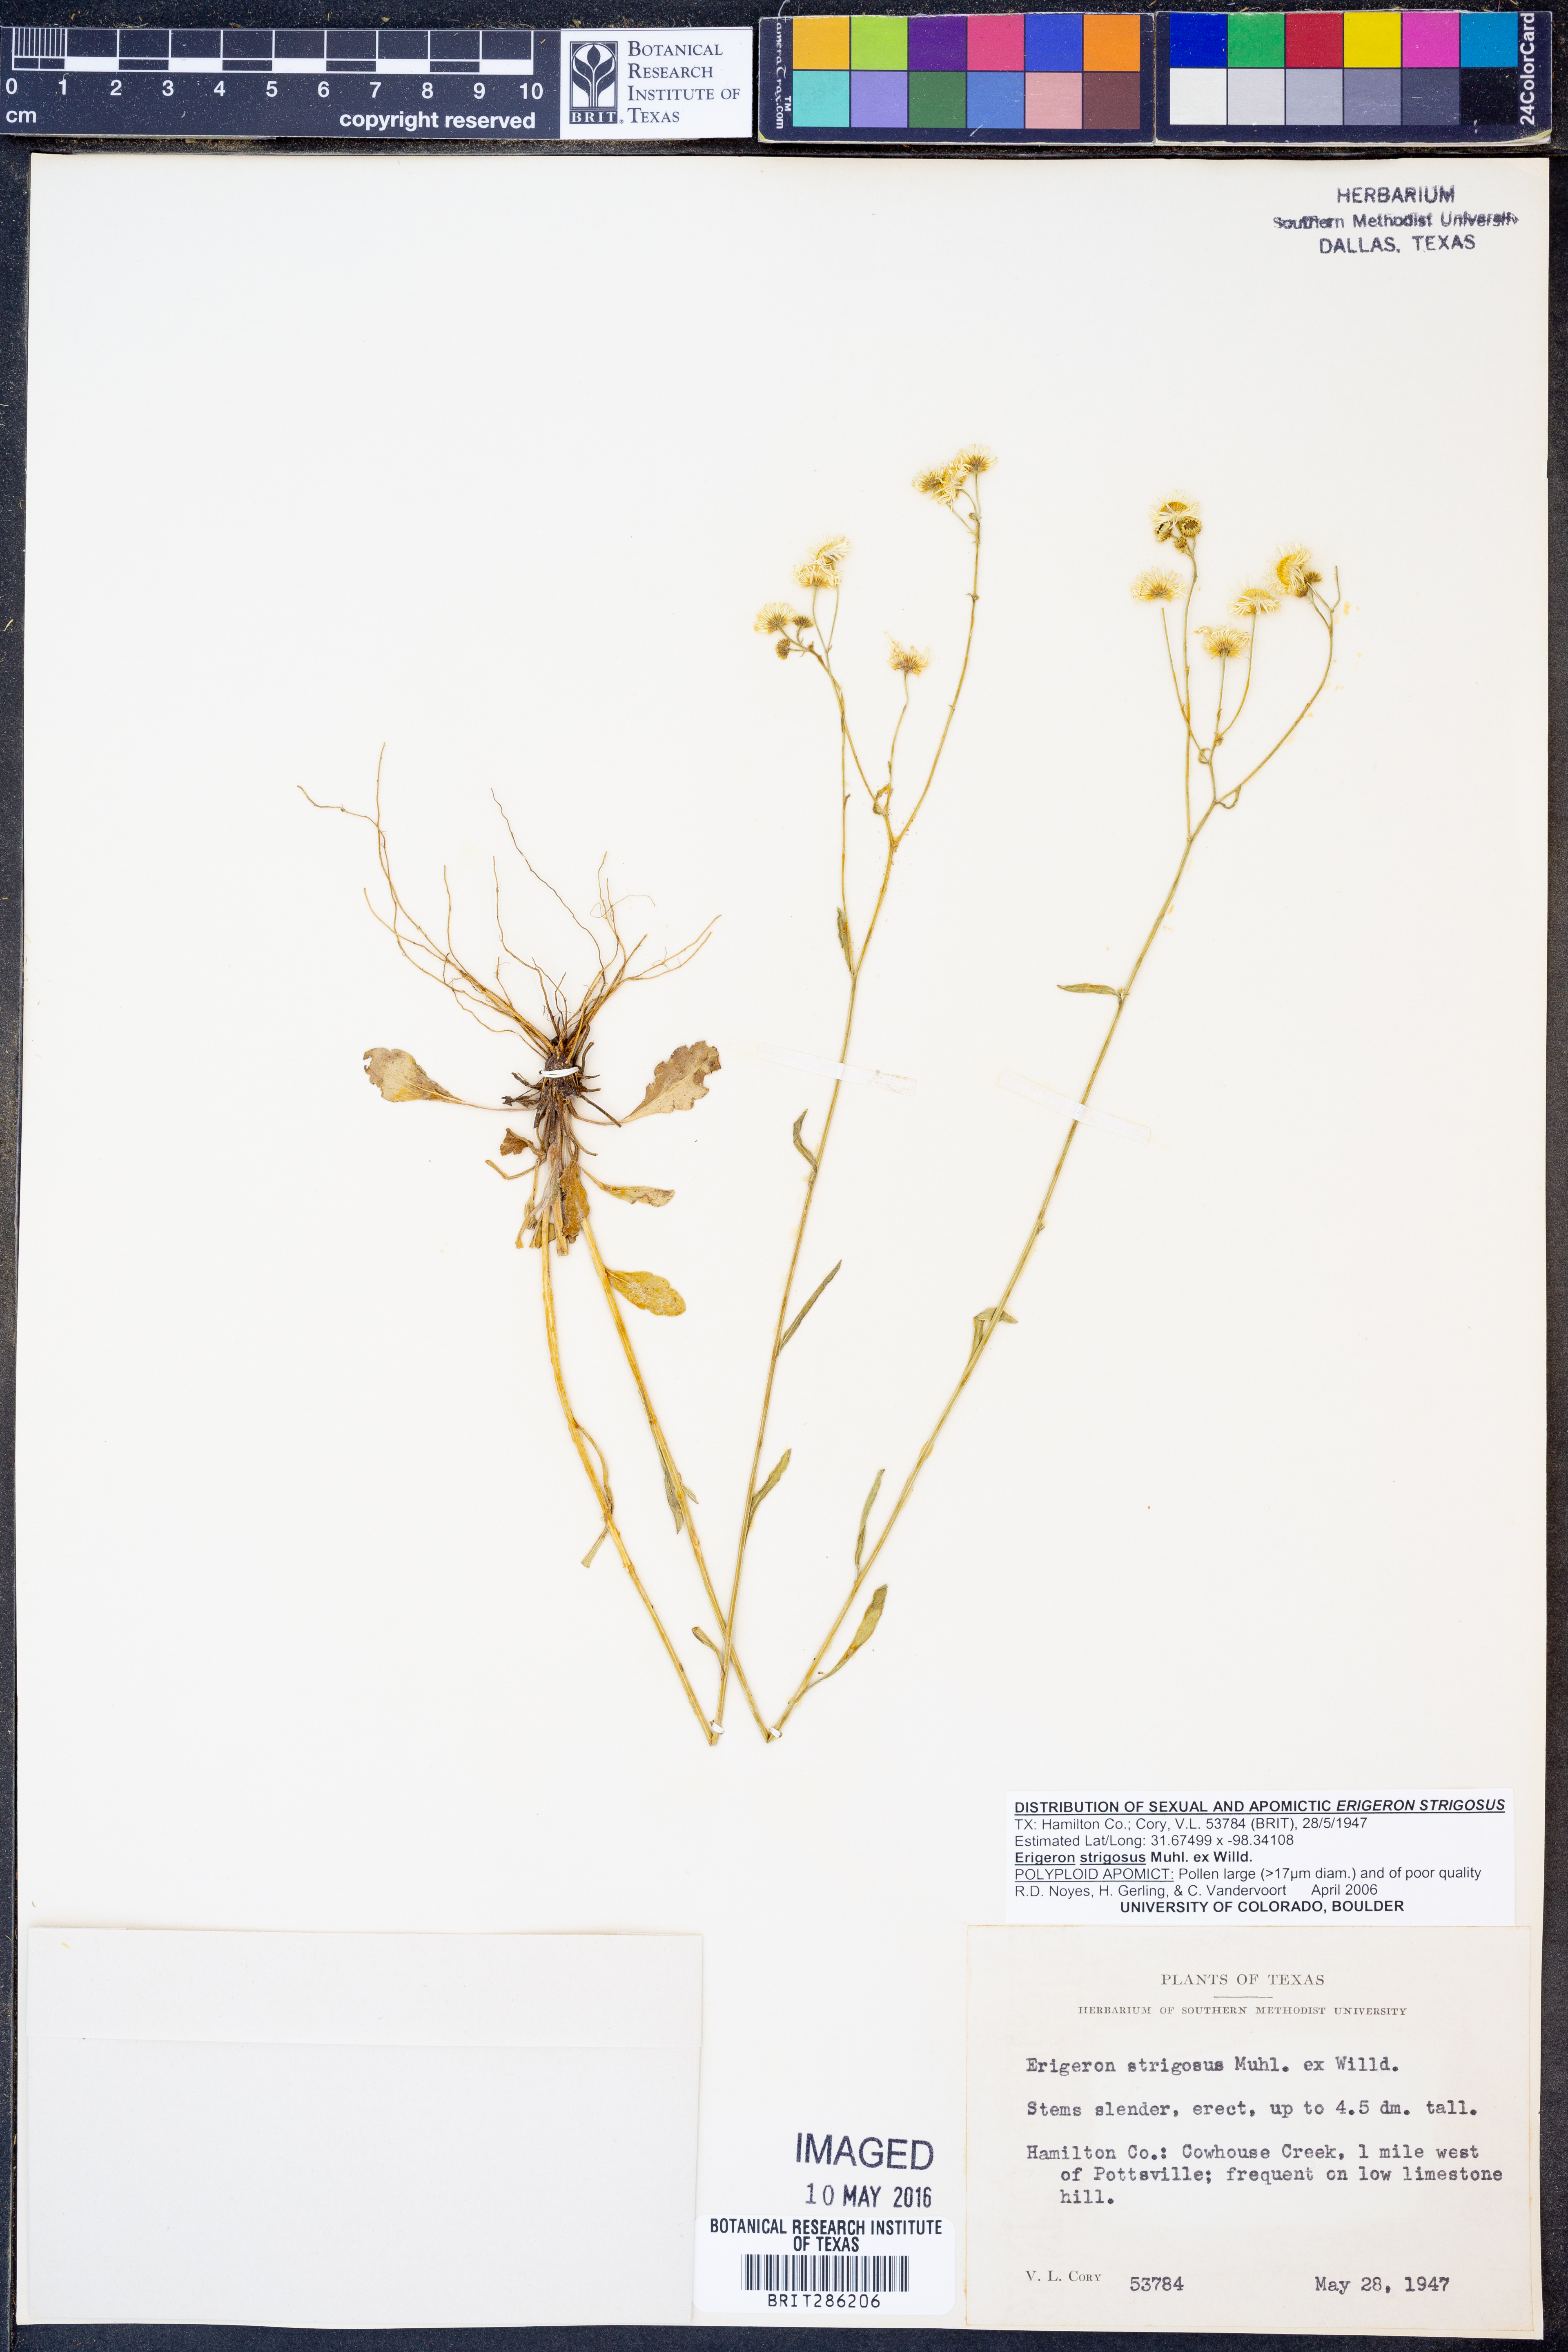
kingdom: Plantae
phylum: Tracheophyta
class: Magnoliopsida
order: Asterales
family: Asteraceae
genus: Erigeron
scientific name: Erigeron strigosus
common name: Common eastern fleabane
